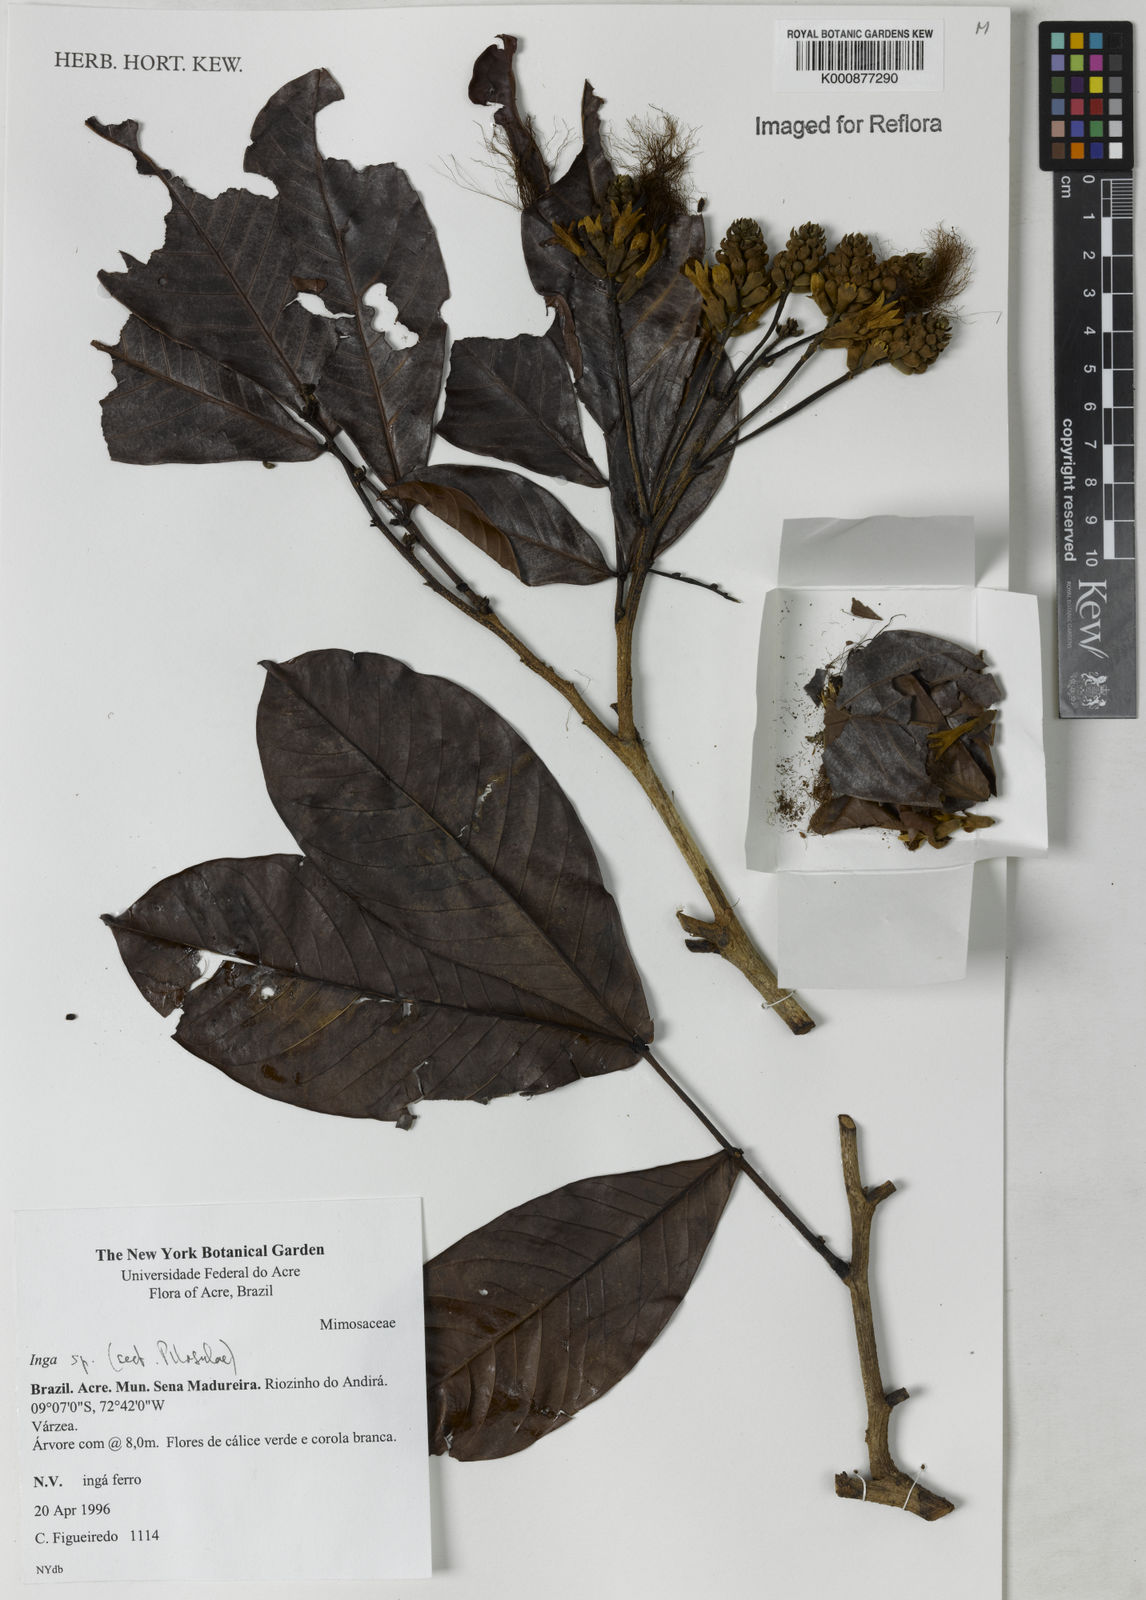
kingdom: Plantae
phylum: Tracheophyta
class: Magnoliopsida
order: Fabales
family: Fabaceae
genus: Inga
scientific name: Inga
